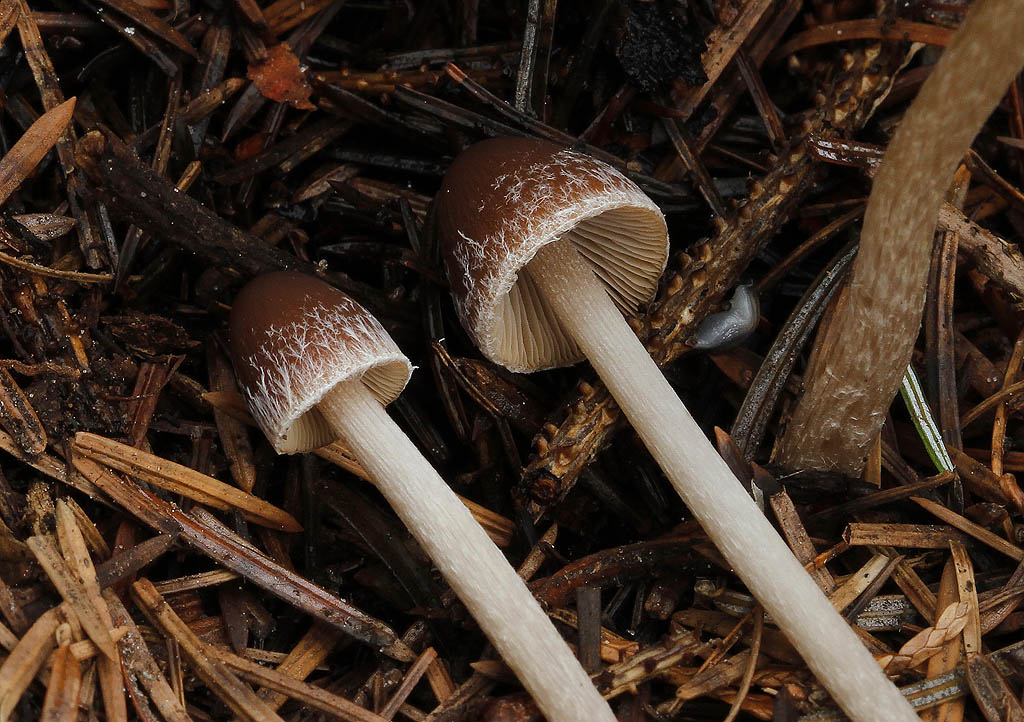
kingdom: Fungi
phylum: Basidiomycota
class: Agaricomycetes
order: Agaricales
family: Psathyrellaceae
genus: Psathyrella
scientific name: Psathyrella microrhiza
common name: rod-mørkhat
